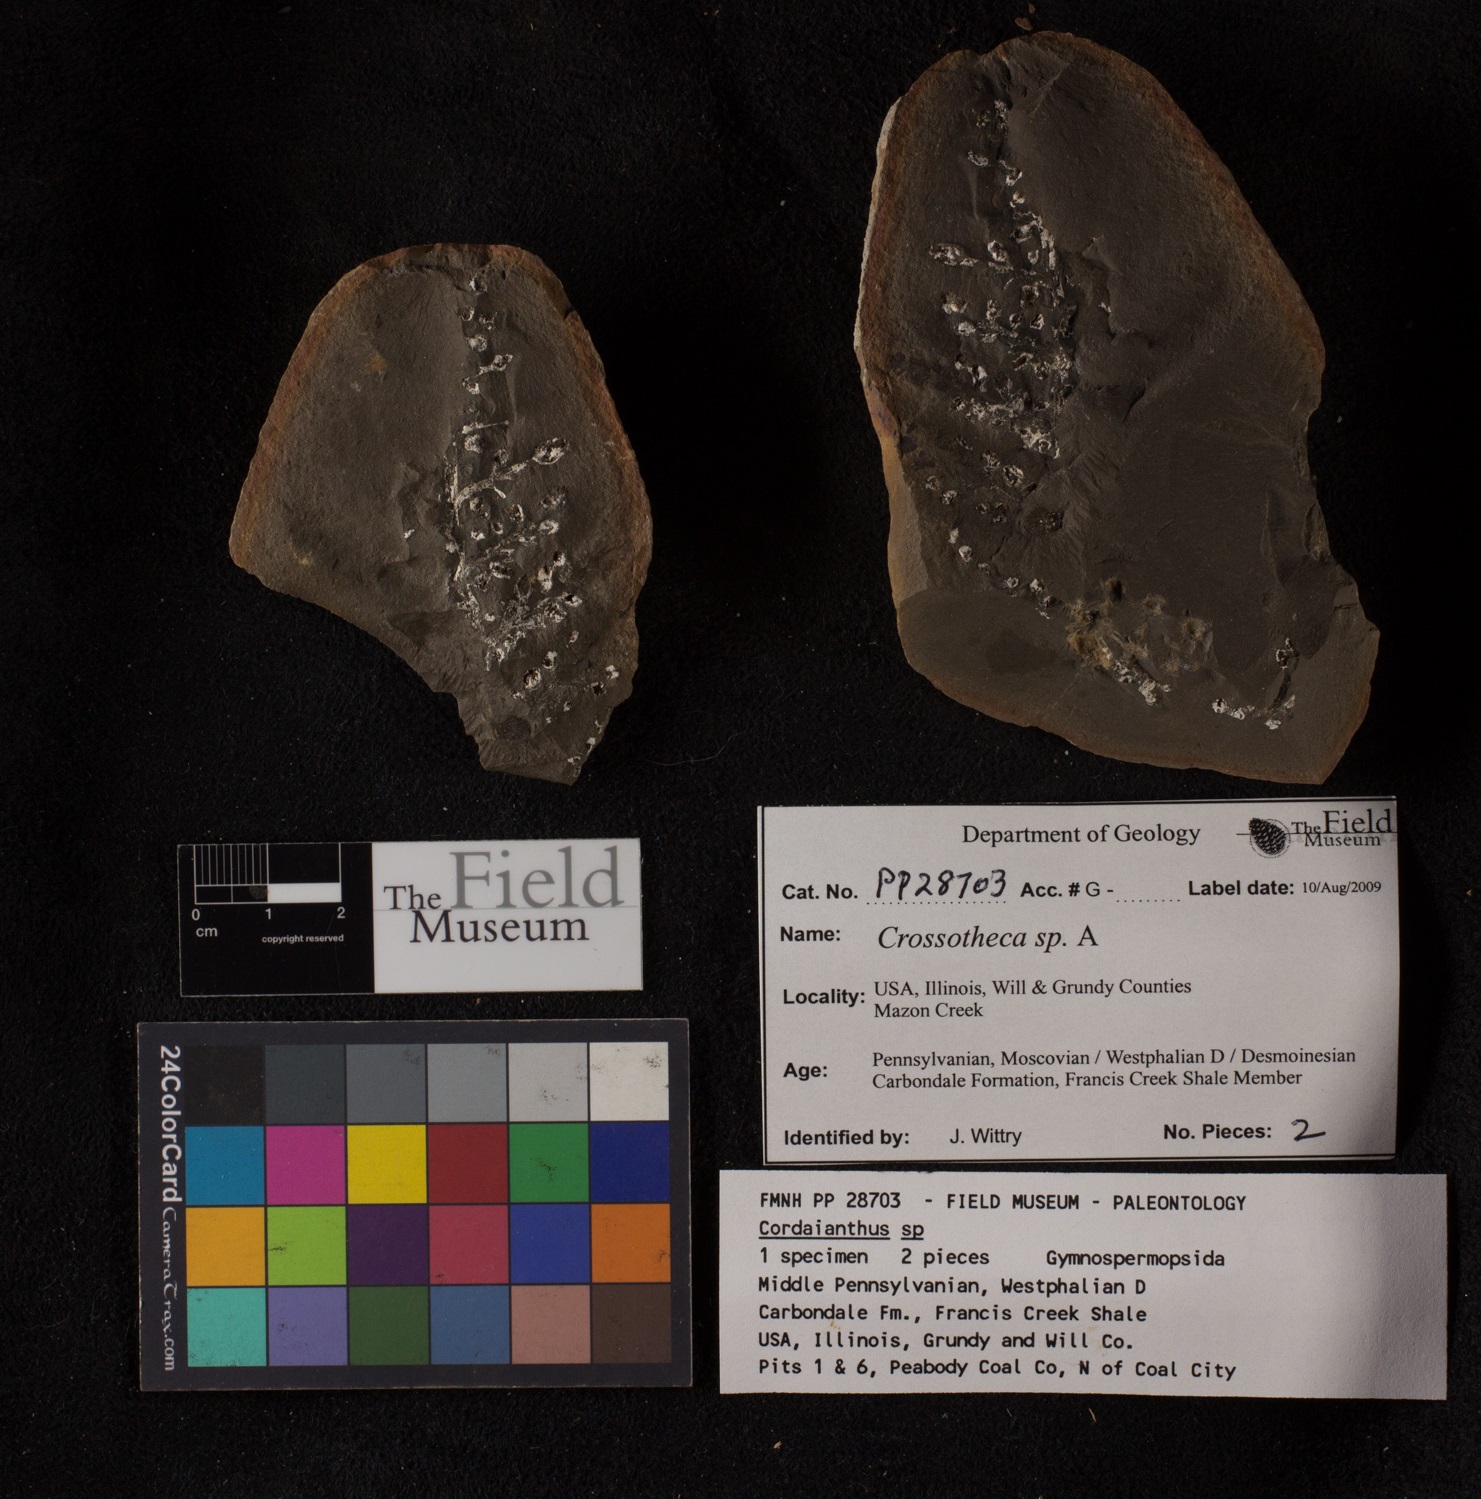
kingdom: Plantae
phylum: Tracheophyta
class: Polypodiopsida
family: Stauropteridaceae
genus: Crossotheca
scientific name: Crossotheca
